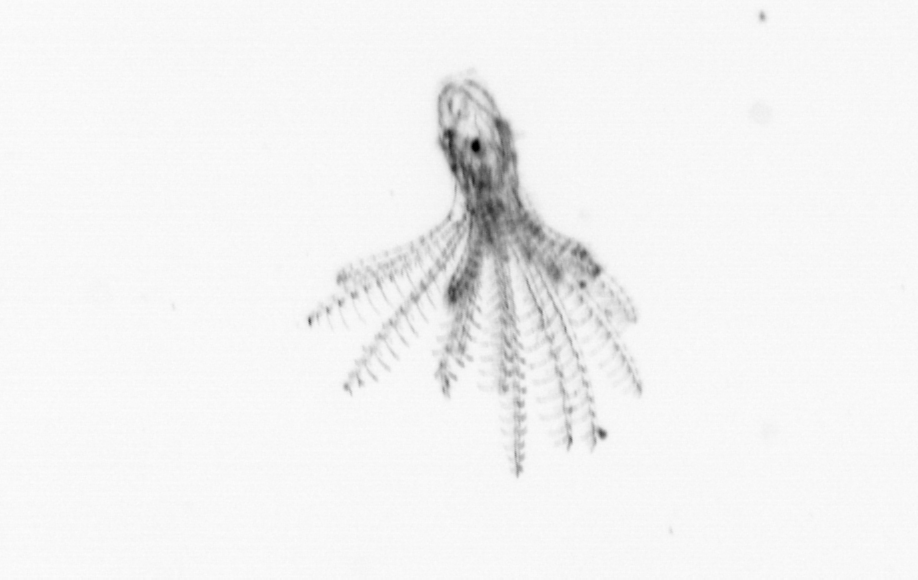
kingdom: Animalia
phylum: Arthropoda
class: Maxillopoda
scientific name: Maxillopoda
